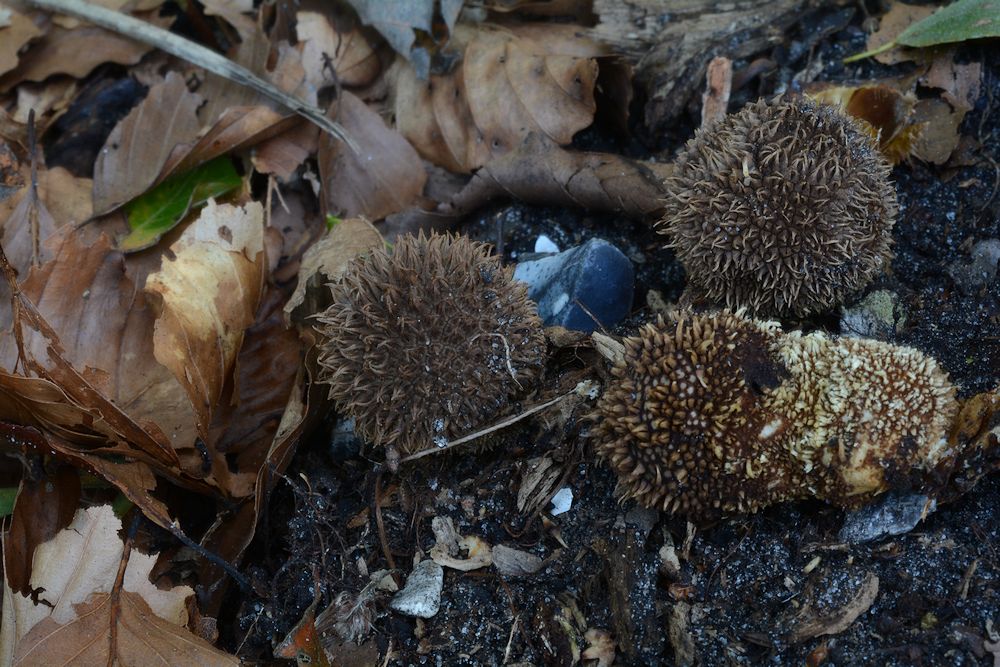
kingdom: Fungi
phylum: Basidiomycota
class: Agaricomycetes
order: Agaricales
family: Lycoperdaceae
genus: Lycoperdon
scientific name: Lycoperdon echinatum
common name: pindsvine-støvbold
